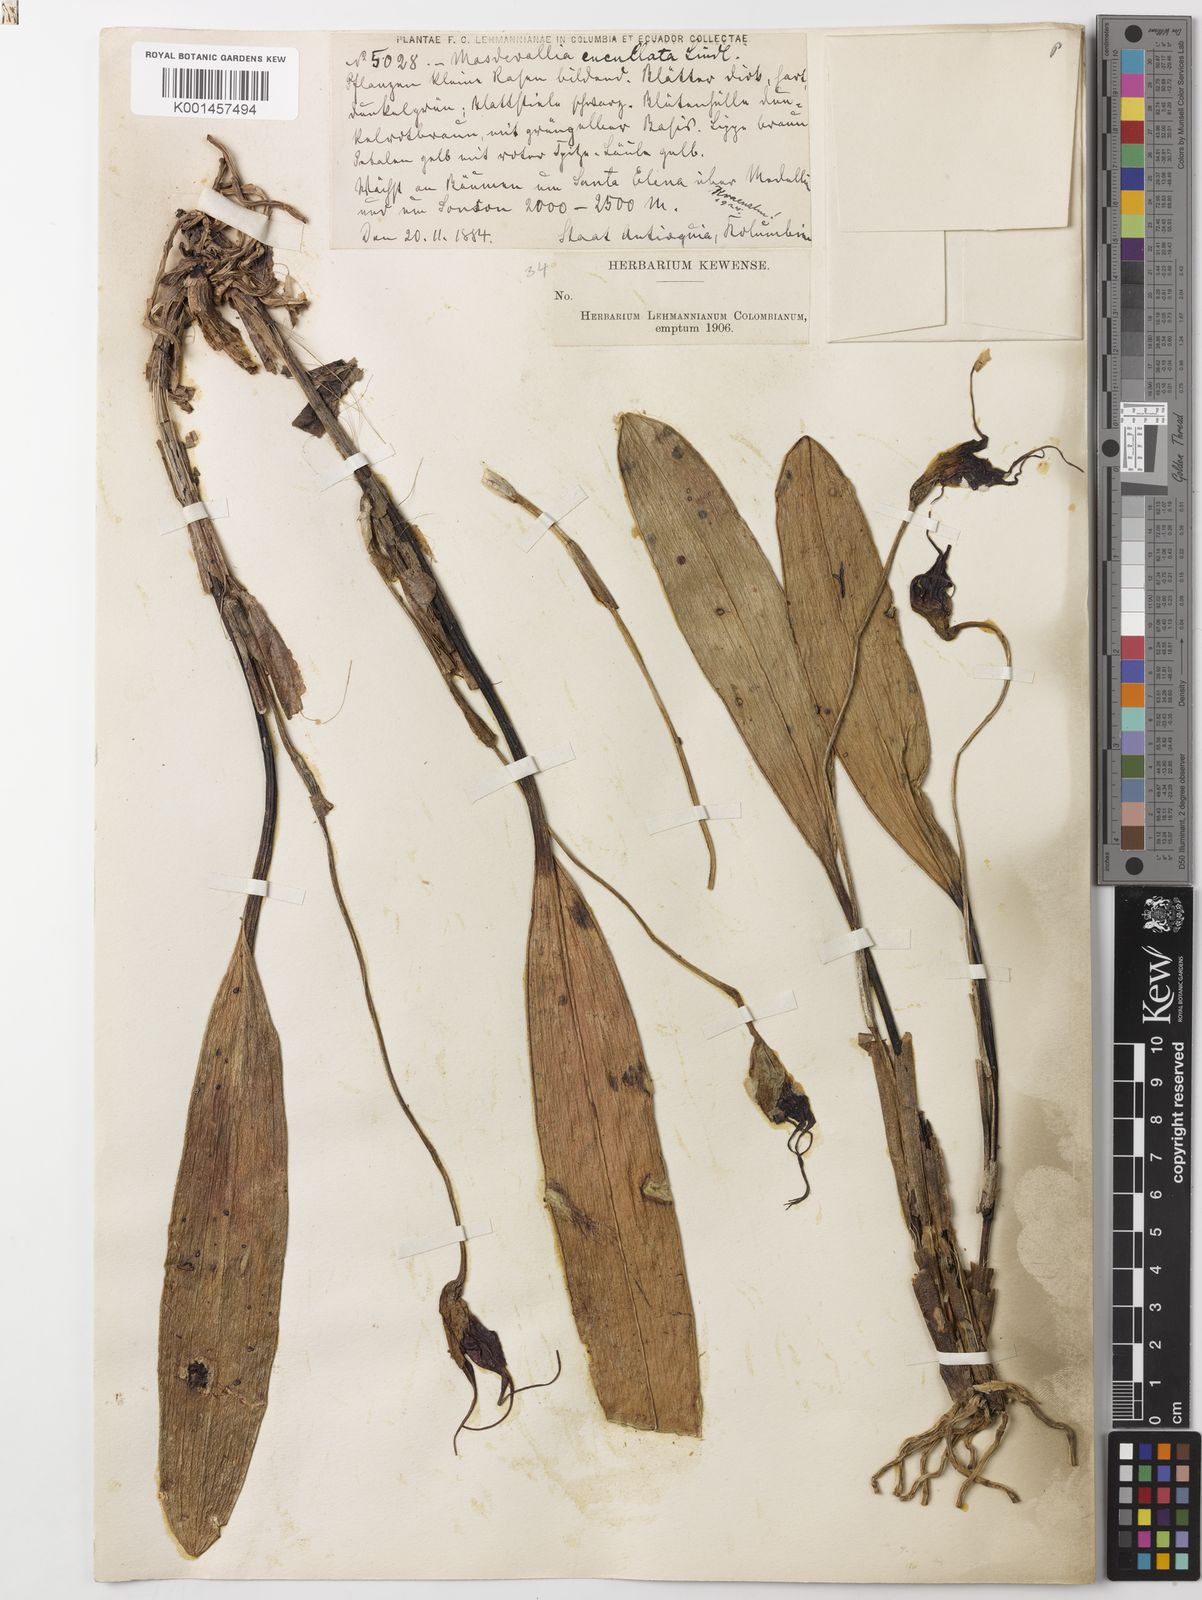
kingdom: Plantae
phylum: Tracheophyta
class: Liliopsida
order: Asparagales
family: Orchidaceae
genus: Masdevallia
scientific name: Masdevallia cucullata
